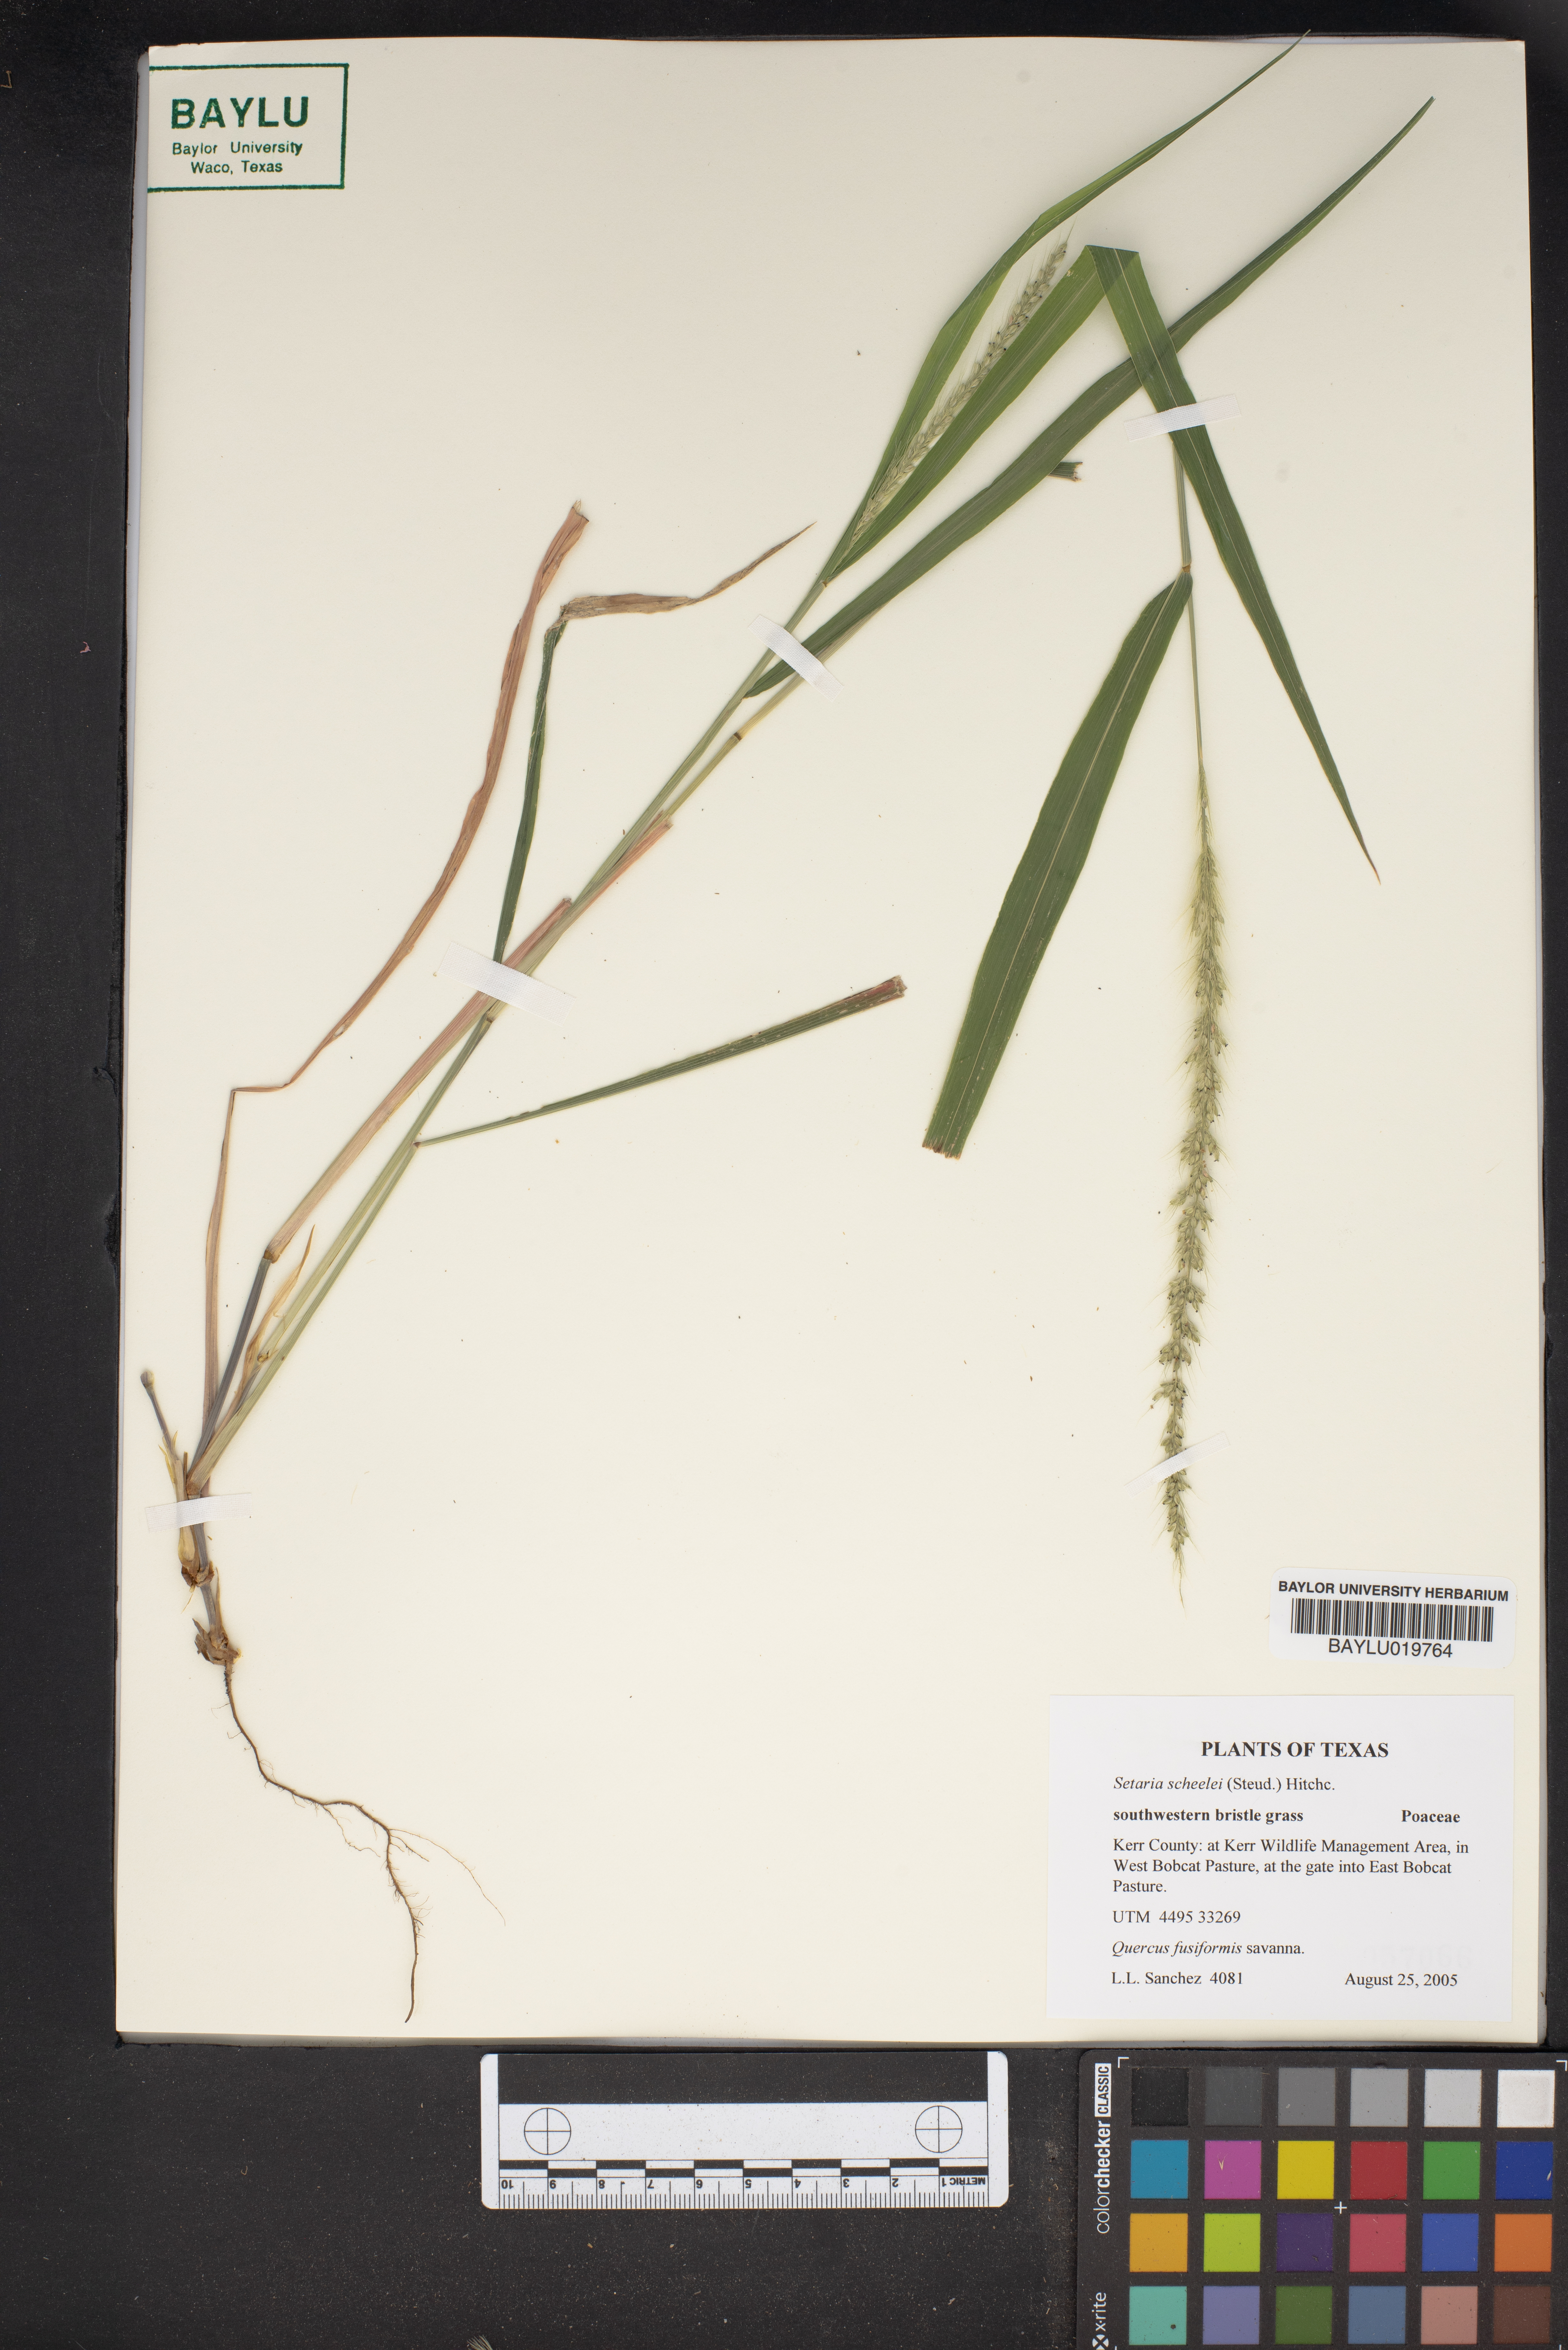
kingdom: Plantae
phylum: Tracheophyta
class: Liliopsida
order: Poales
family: Poaceae
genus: Setaria
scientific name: Setaria scheelei
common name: Southwestern bristle grass
